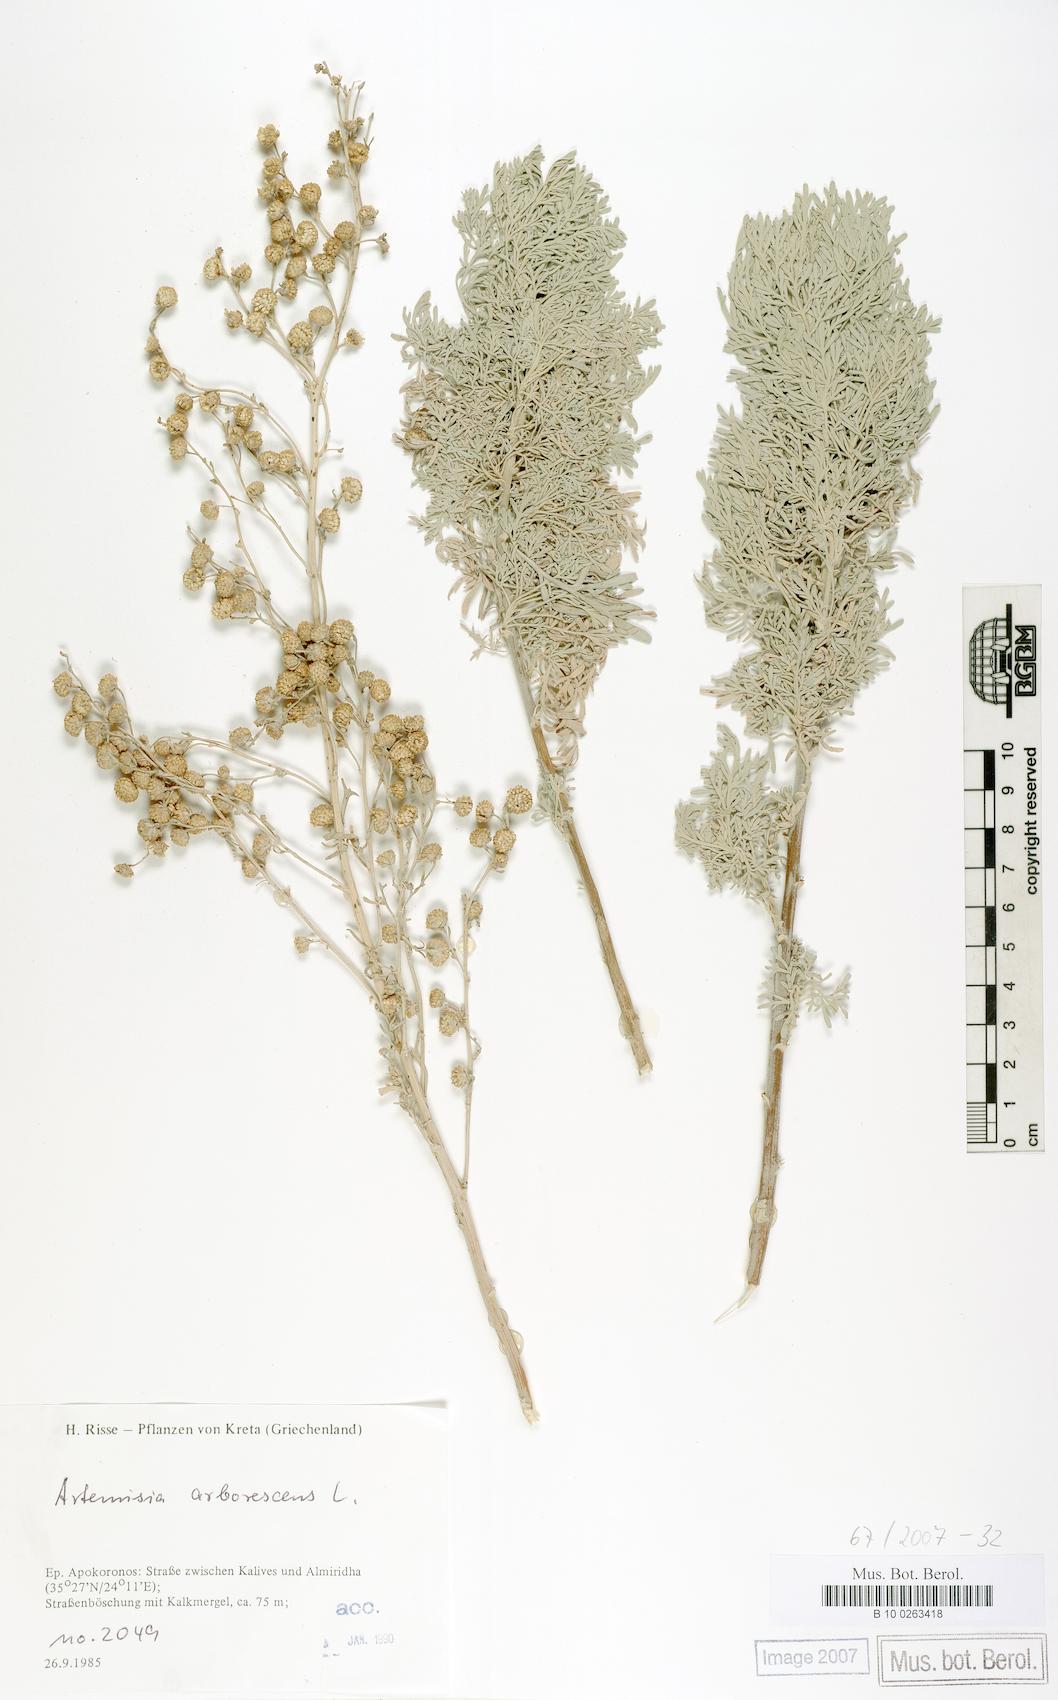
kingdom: Plantae
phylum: Tracheophyta
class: Magnoliopsida
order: Asterales
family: Asteraceae
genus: Artemisia
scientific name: Artemisia arborescens
